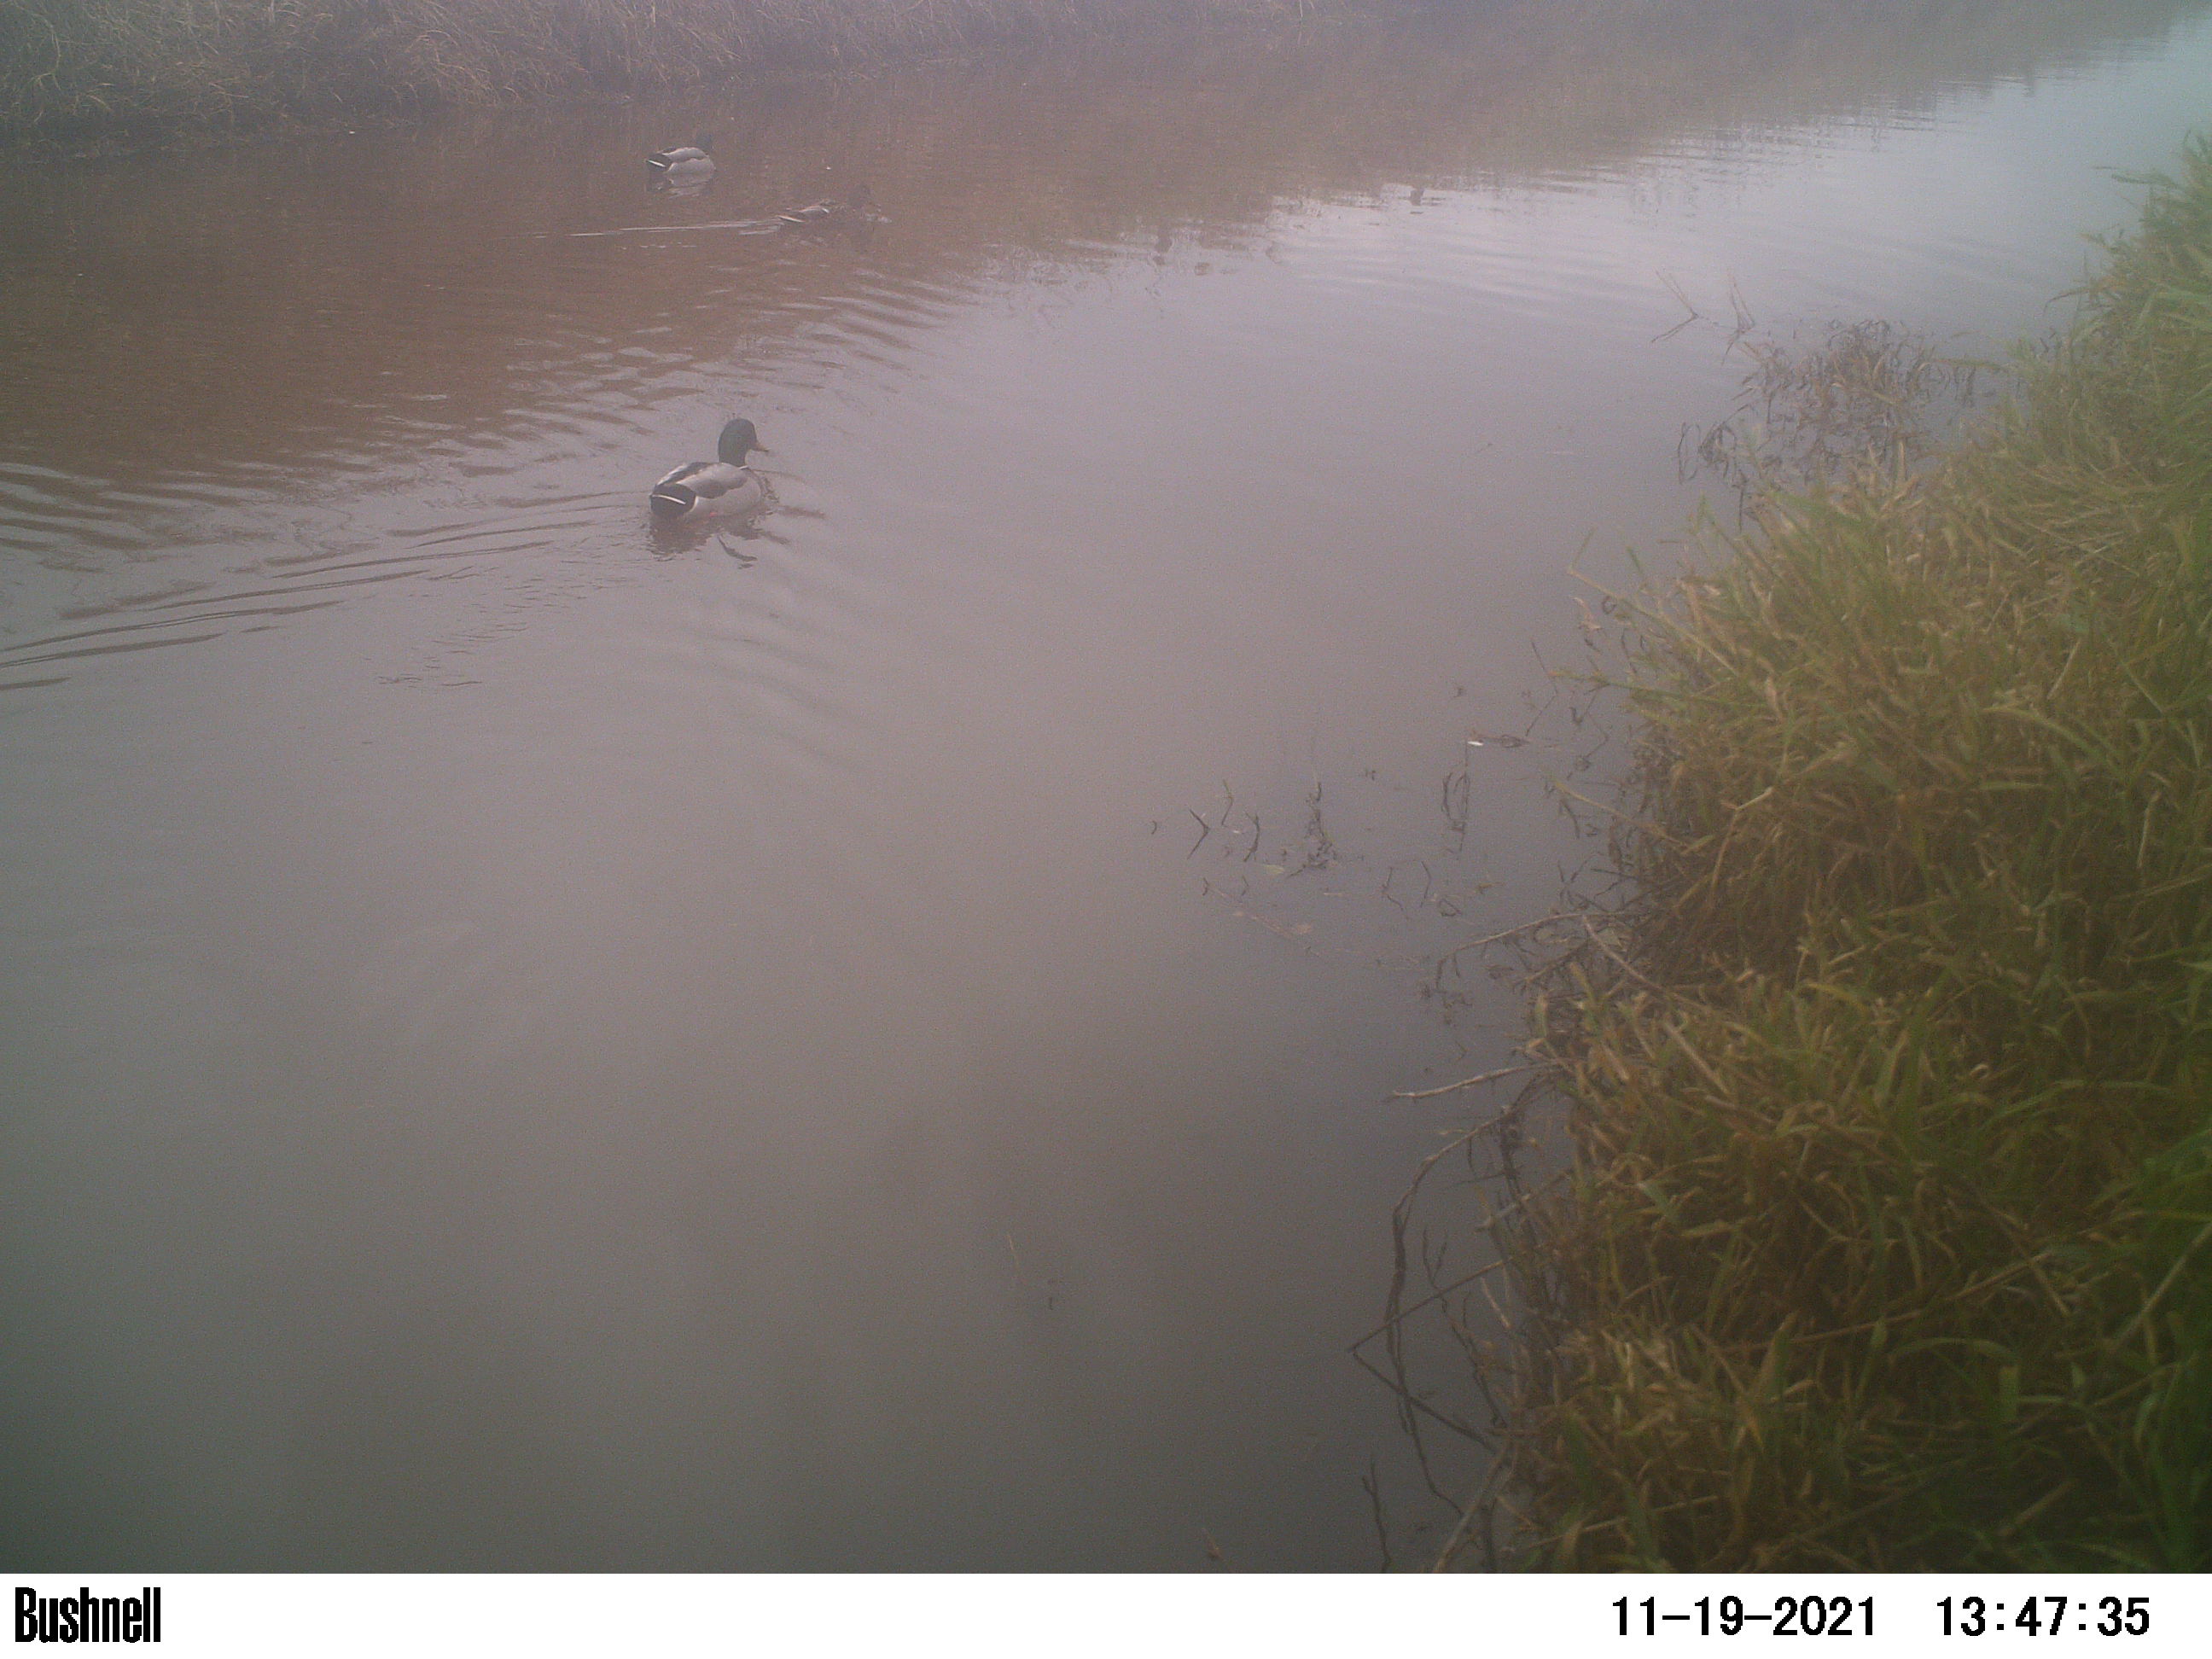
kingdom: Animalia
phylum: Chordata
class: Aves
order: Anseriformes
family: Anatidae
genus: Anas
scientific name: Anas
